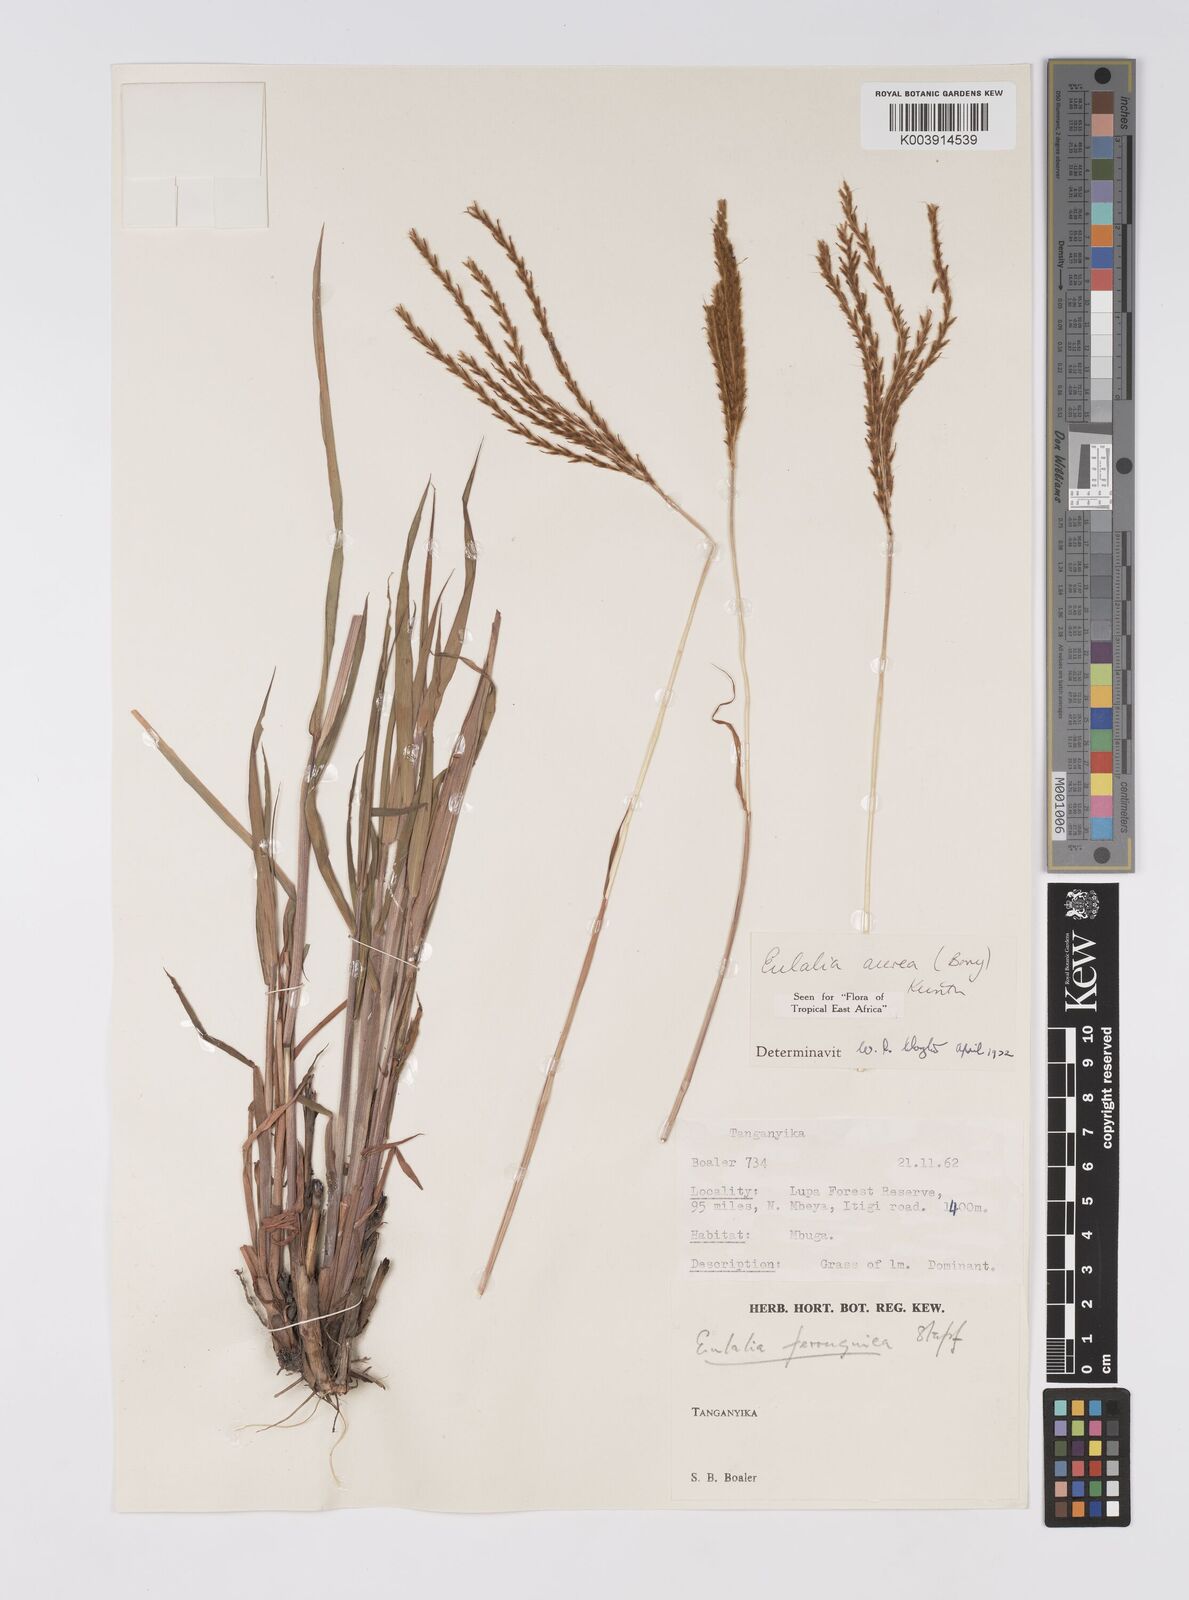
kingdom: Plantae
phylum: Tracheophyta
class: Liliopsida
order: Poales
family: Poaceae
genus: Eulalia
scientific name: Eulalia aurea
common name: Silky browntop
